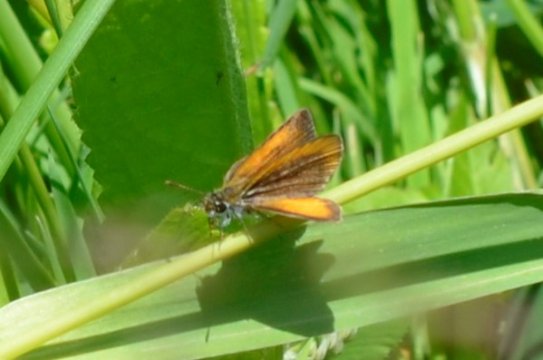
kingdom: Animalia
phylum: Arthropoda
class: Insecta
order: Lepidoptera
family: Hesperiidae
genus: Ancyloxypha
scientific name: Ancyloxypha numitor
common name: Least Skipper
